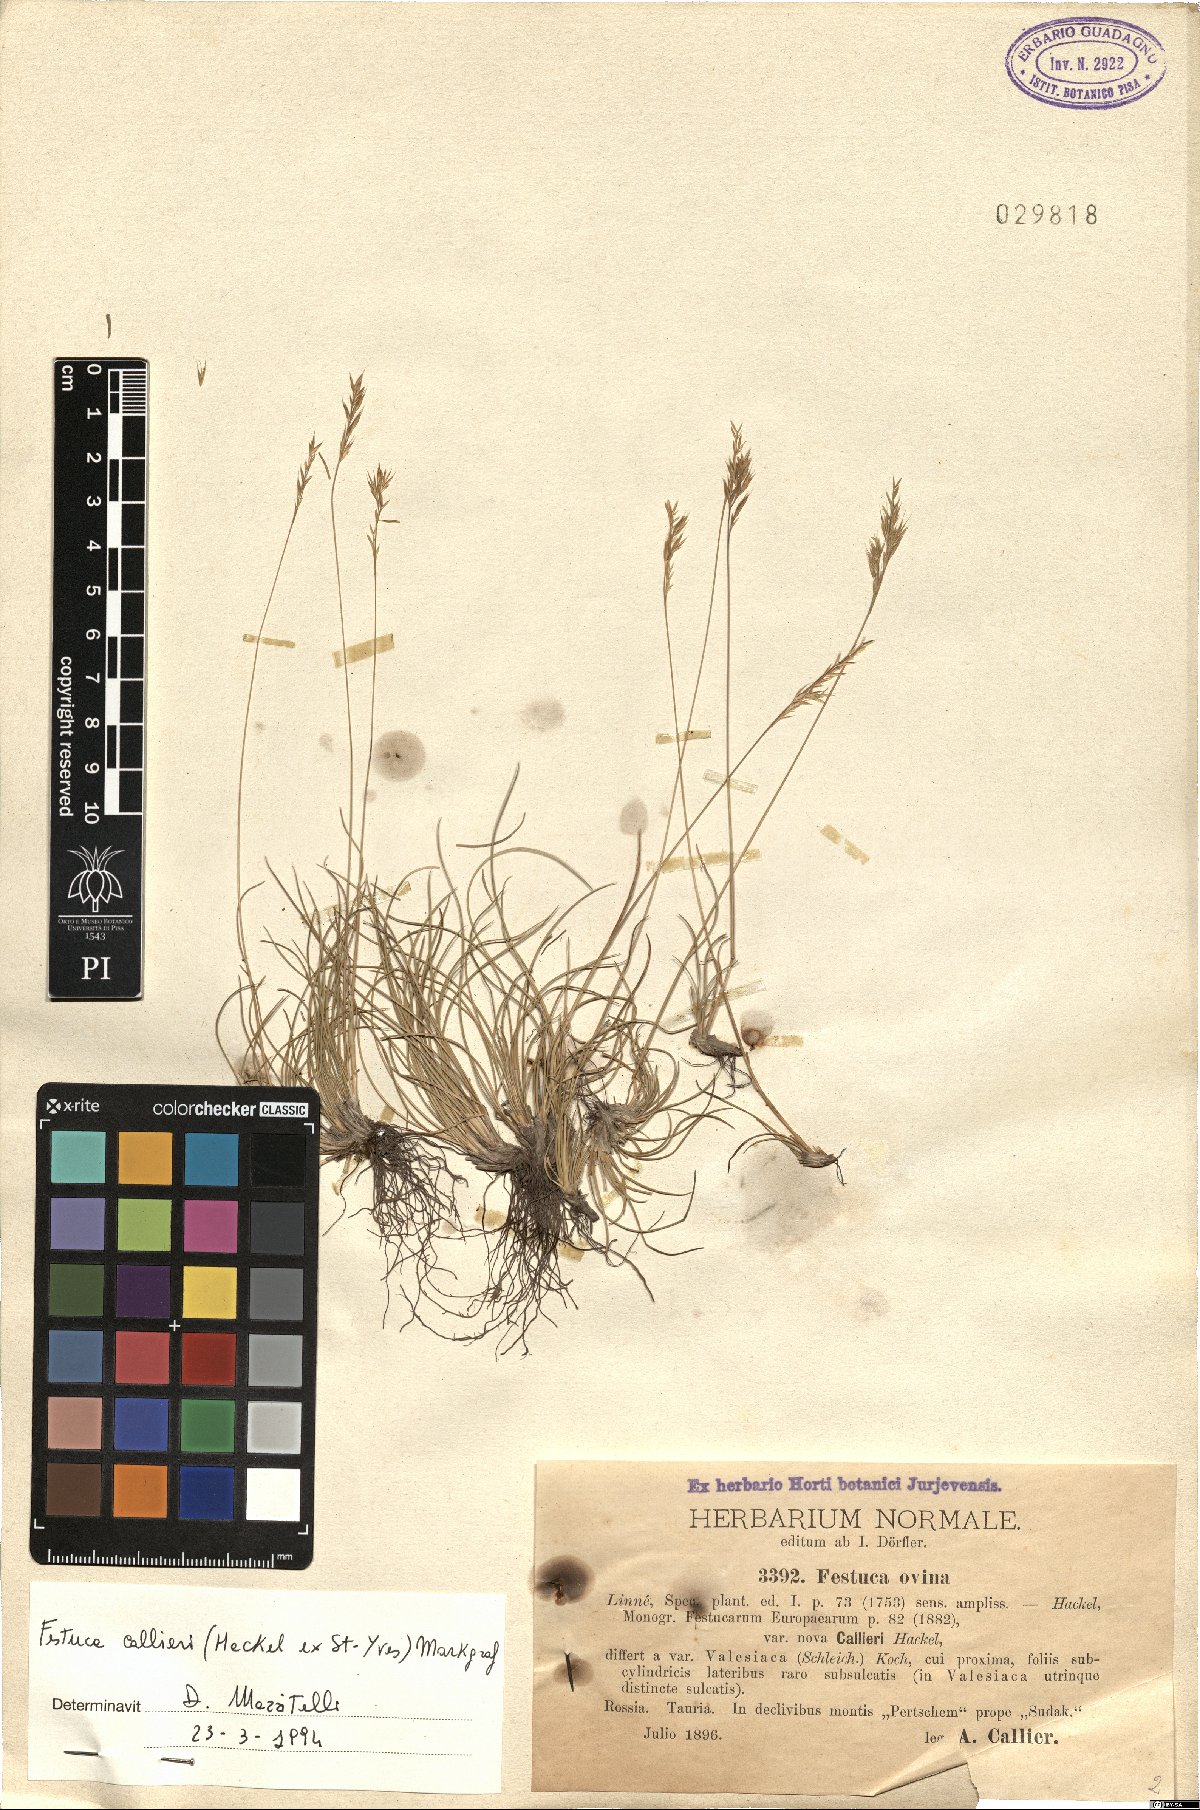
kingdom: Plantae
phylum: Tracheophyta
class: Liliopsida
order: Poales
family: Poaceae
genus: Festuca
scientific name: Festuca callieri
